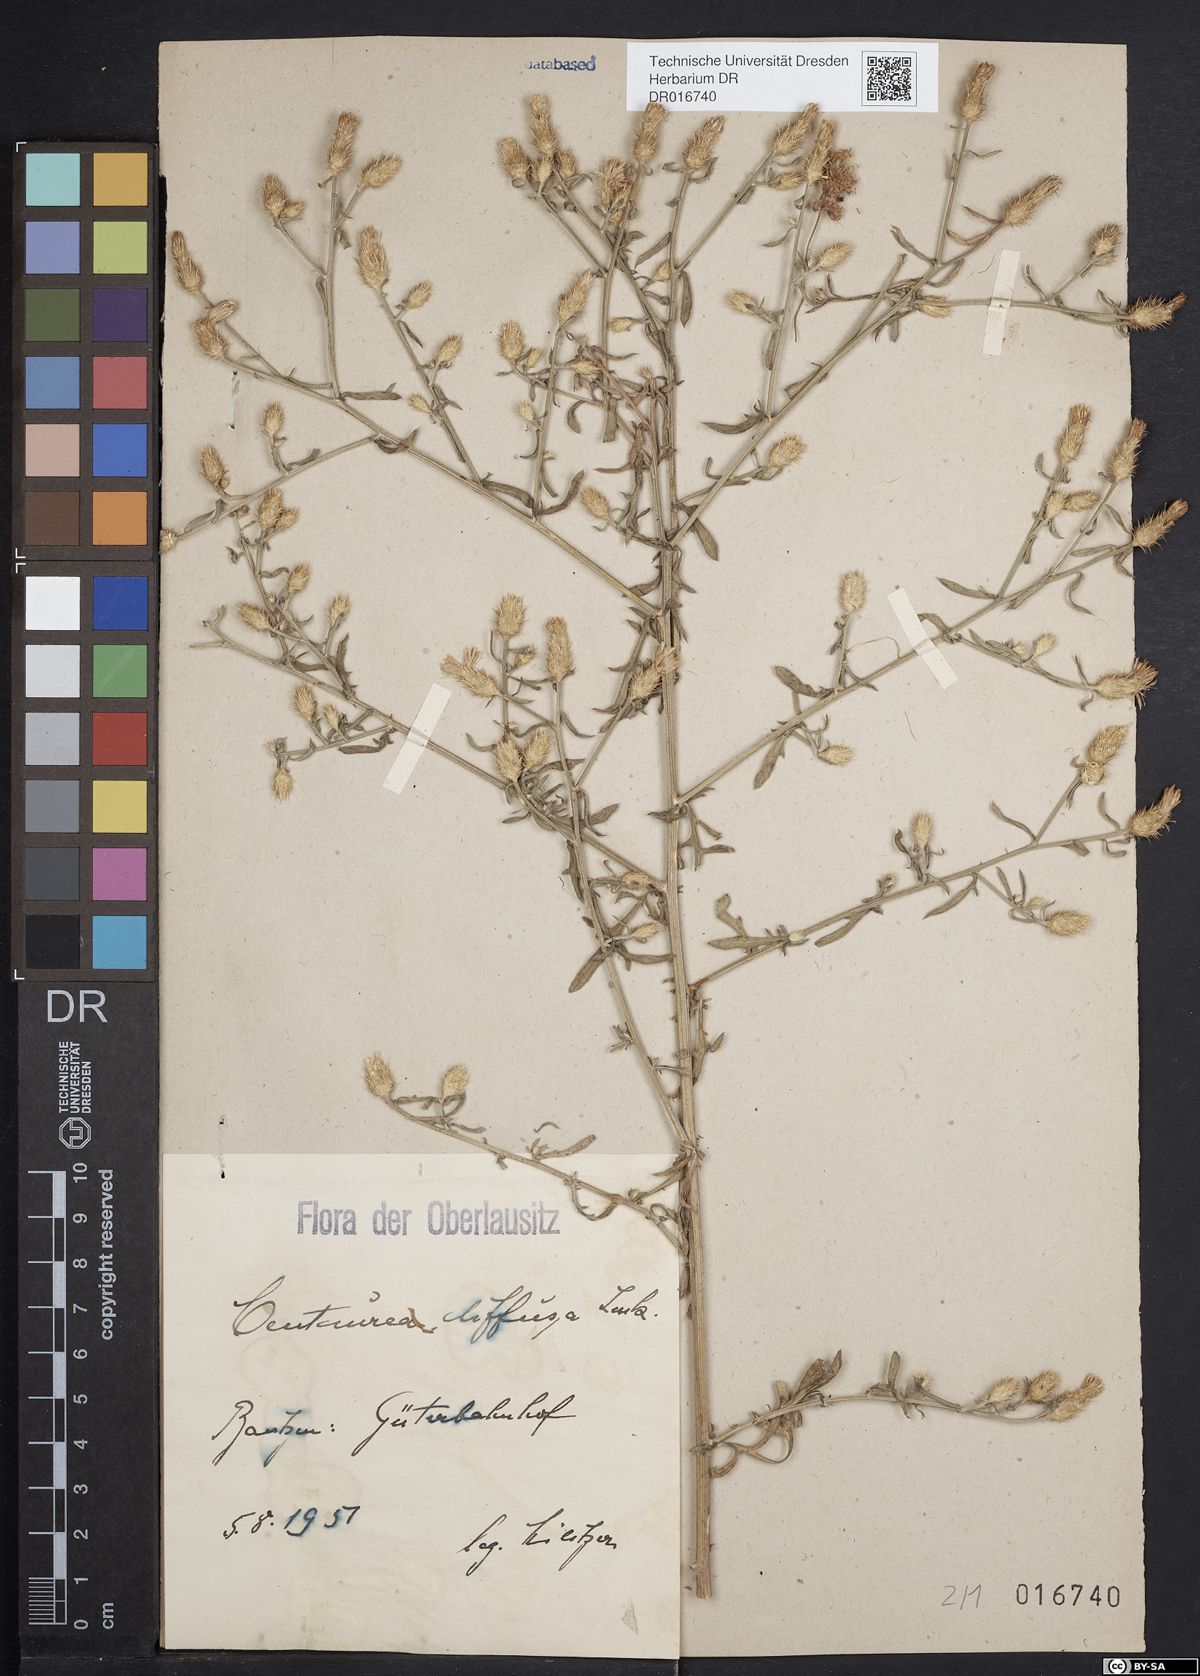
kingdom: Plantae
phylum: Tracheophyta
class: Magnoliopsida
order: Asterales
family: Asteraceae
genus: Centaurea
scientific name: Centaurea diffusa
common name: Diffuse knapweed
